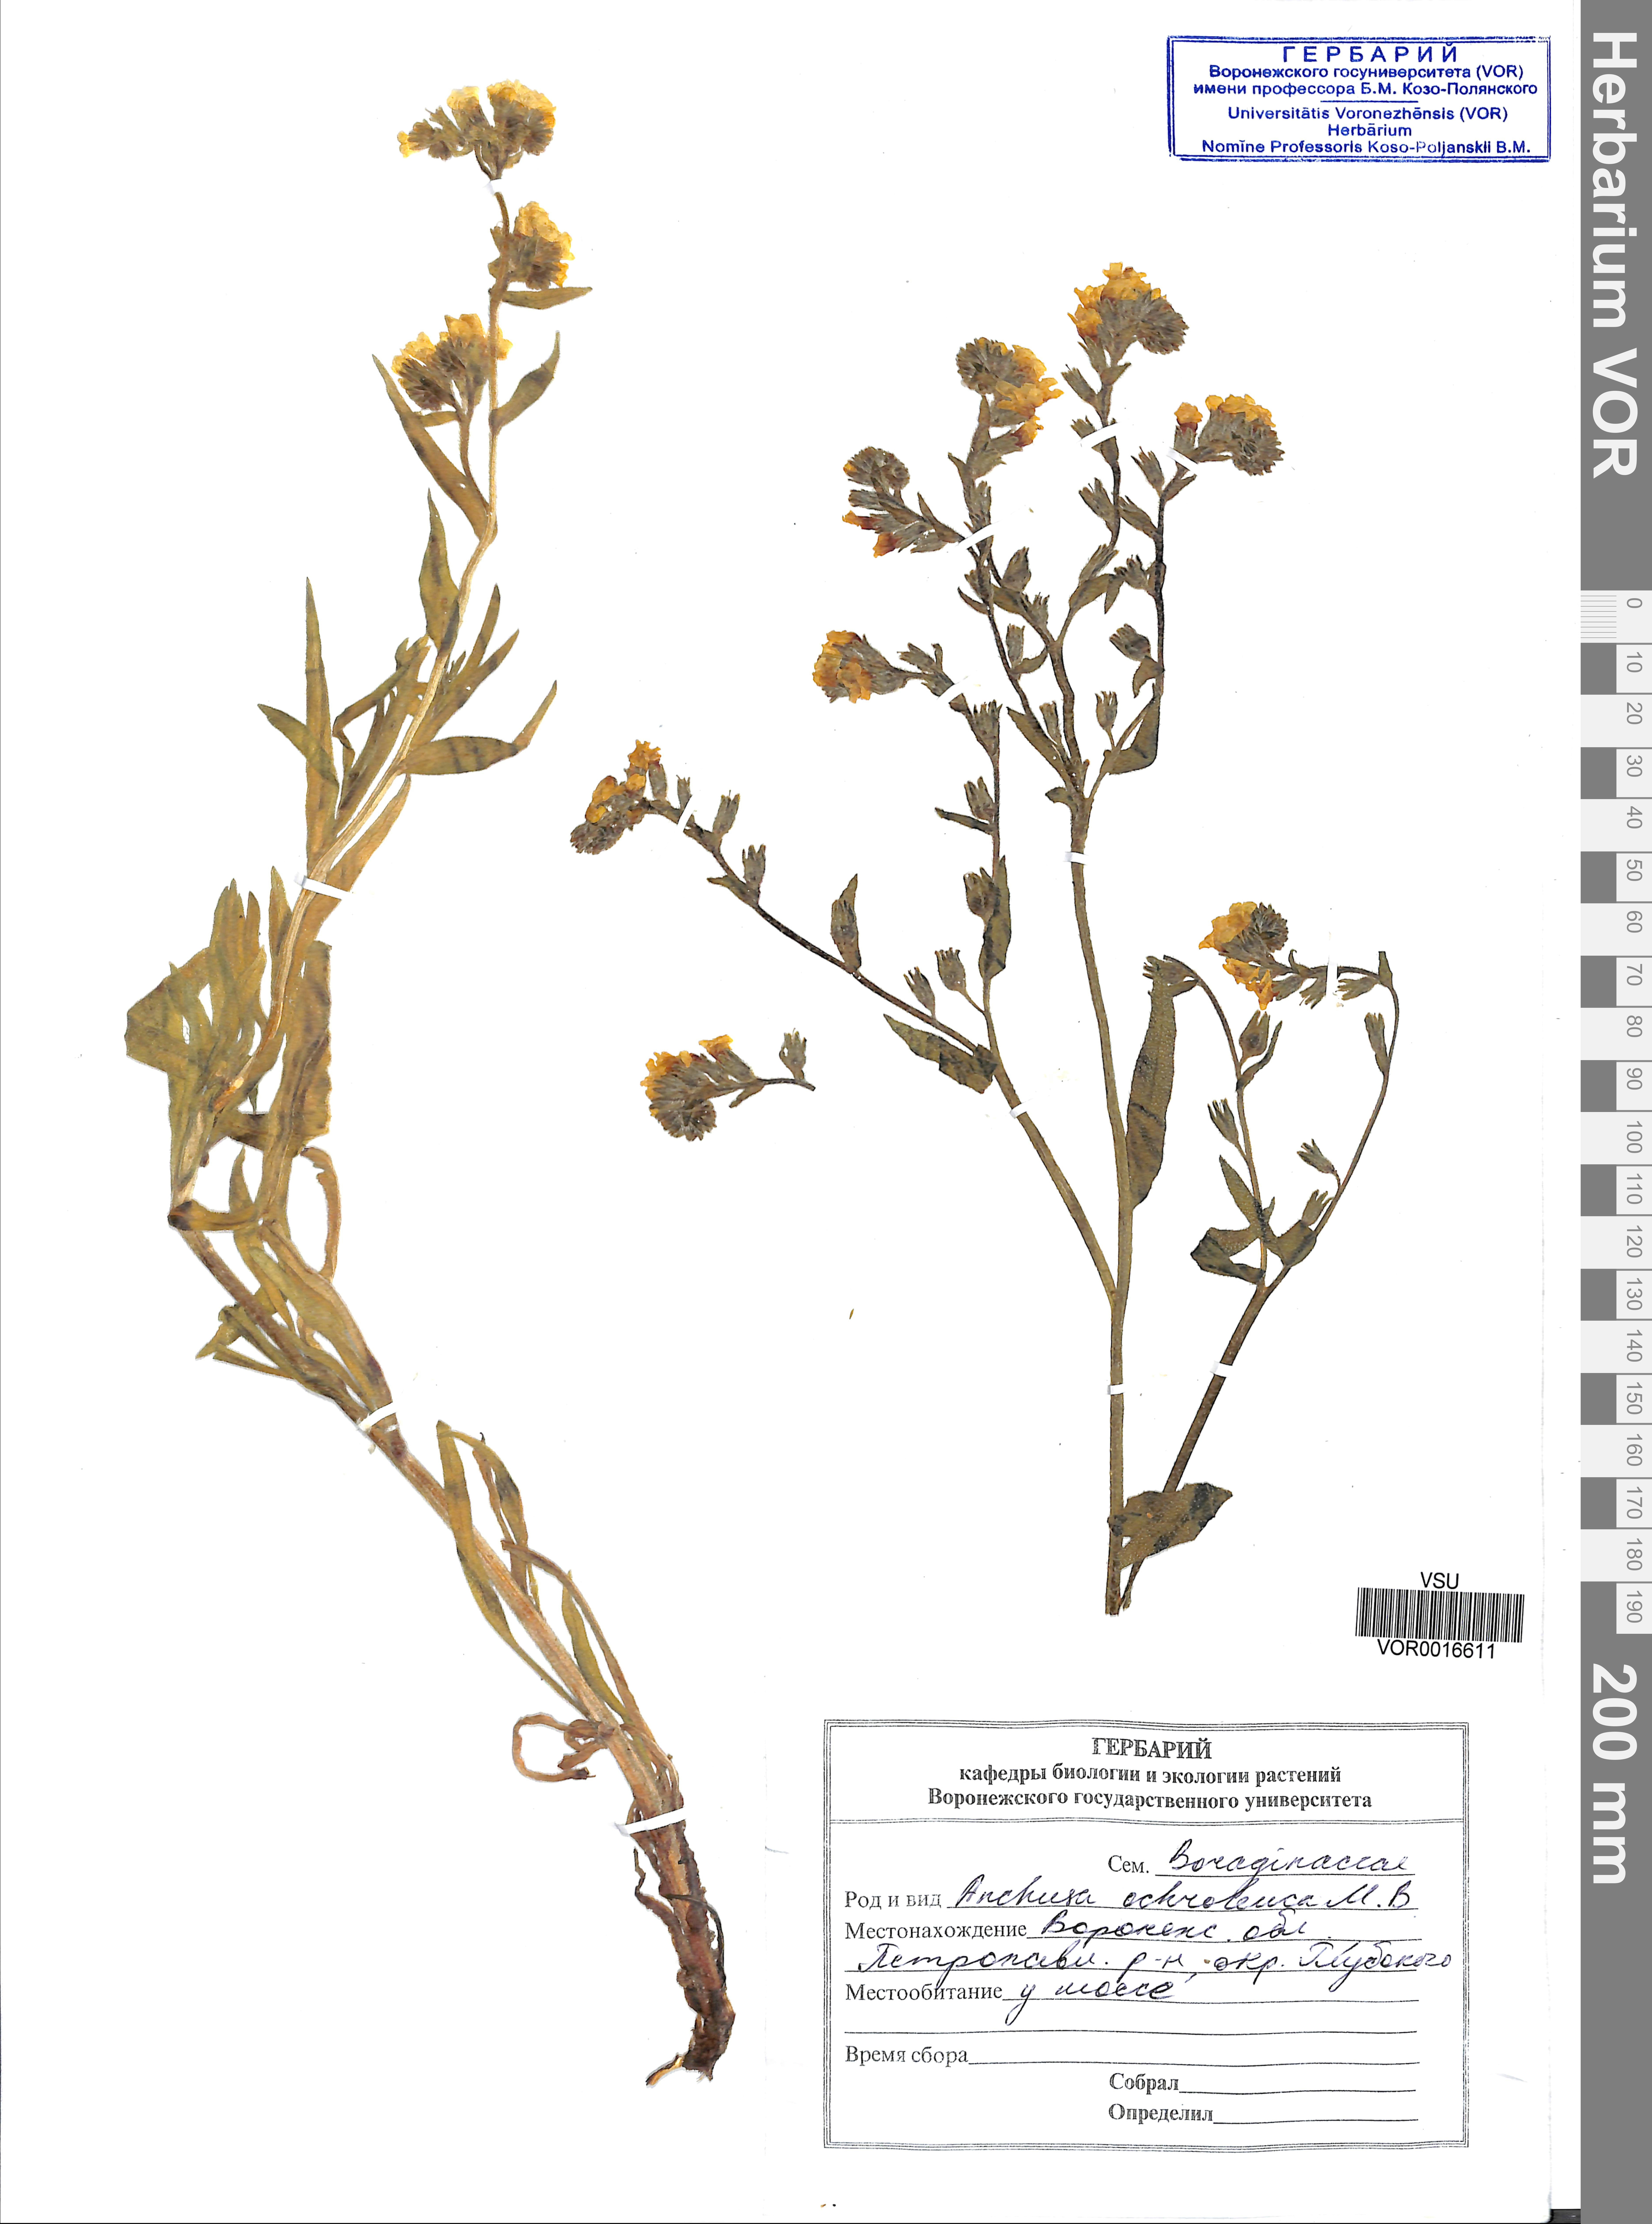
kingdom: Plantae
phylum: Tracheophyta
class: Magnoliopsida
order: Boraginales
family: Boraginaceae
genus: Anchusa
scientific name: Anchusa ochroleuca
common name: Yellow alkanet
